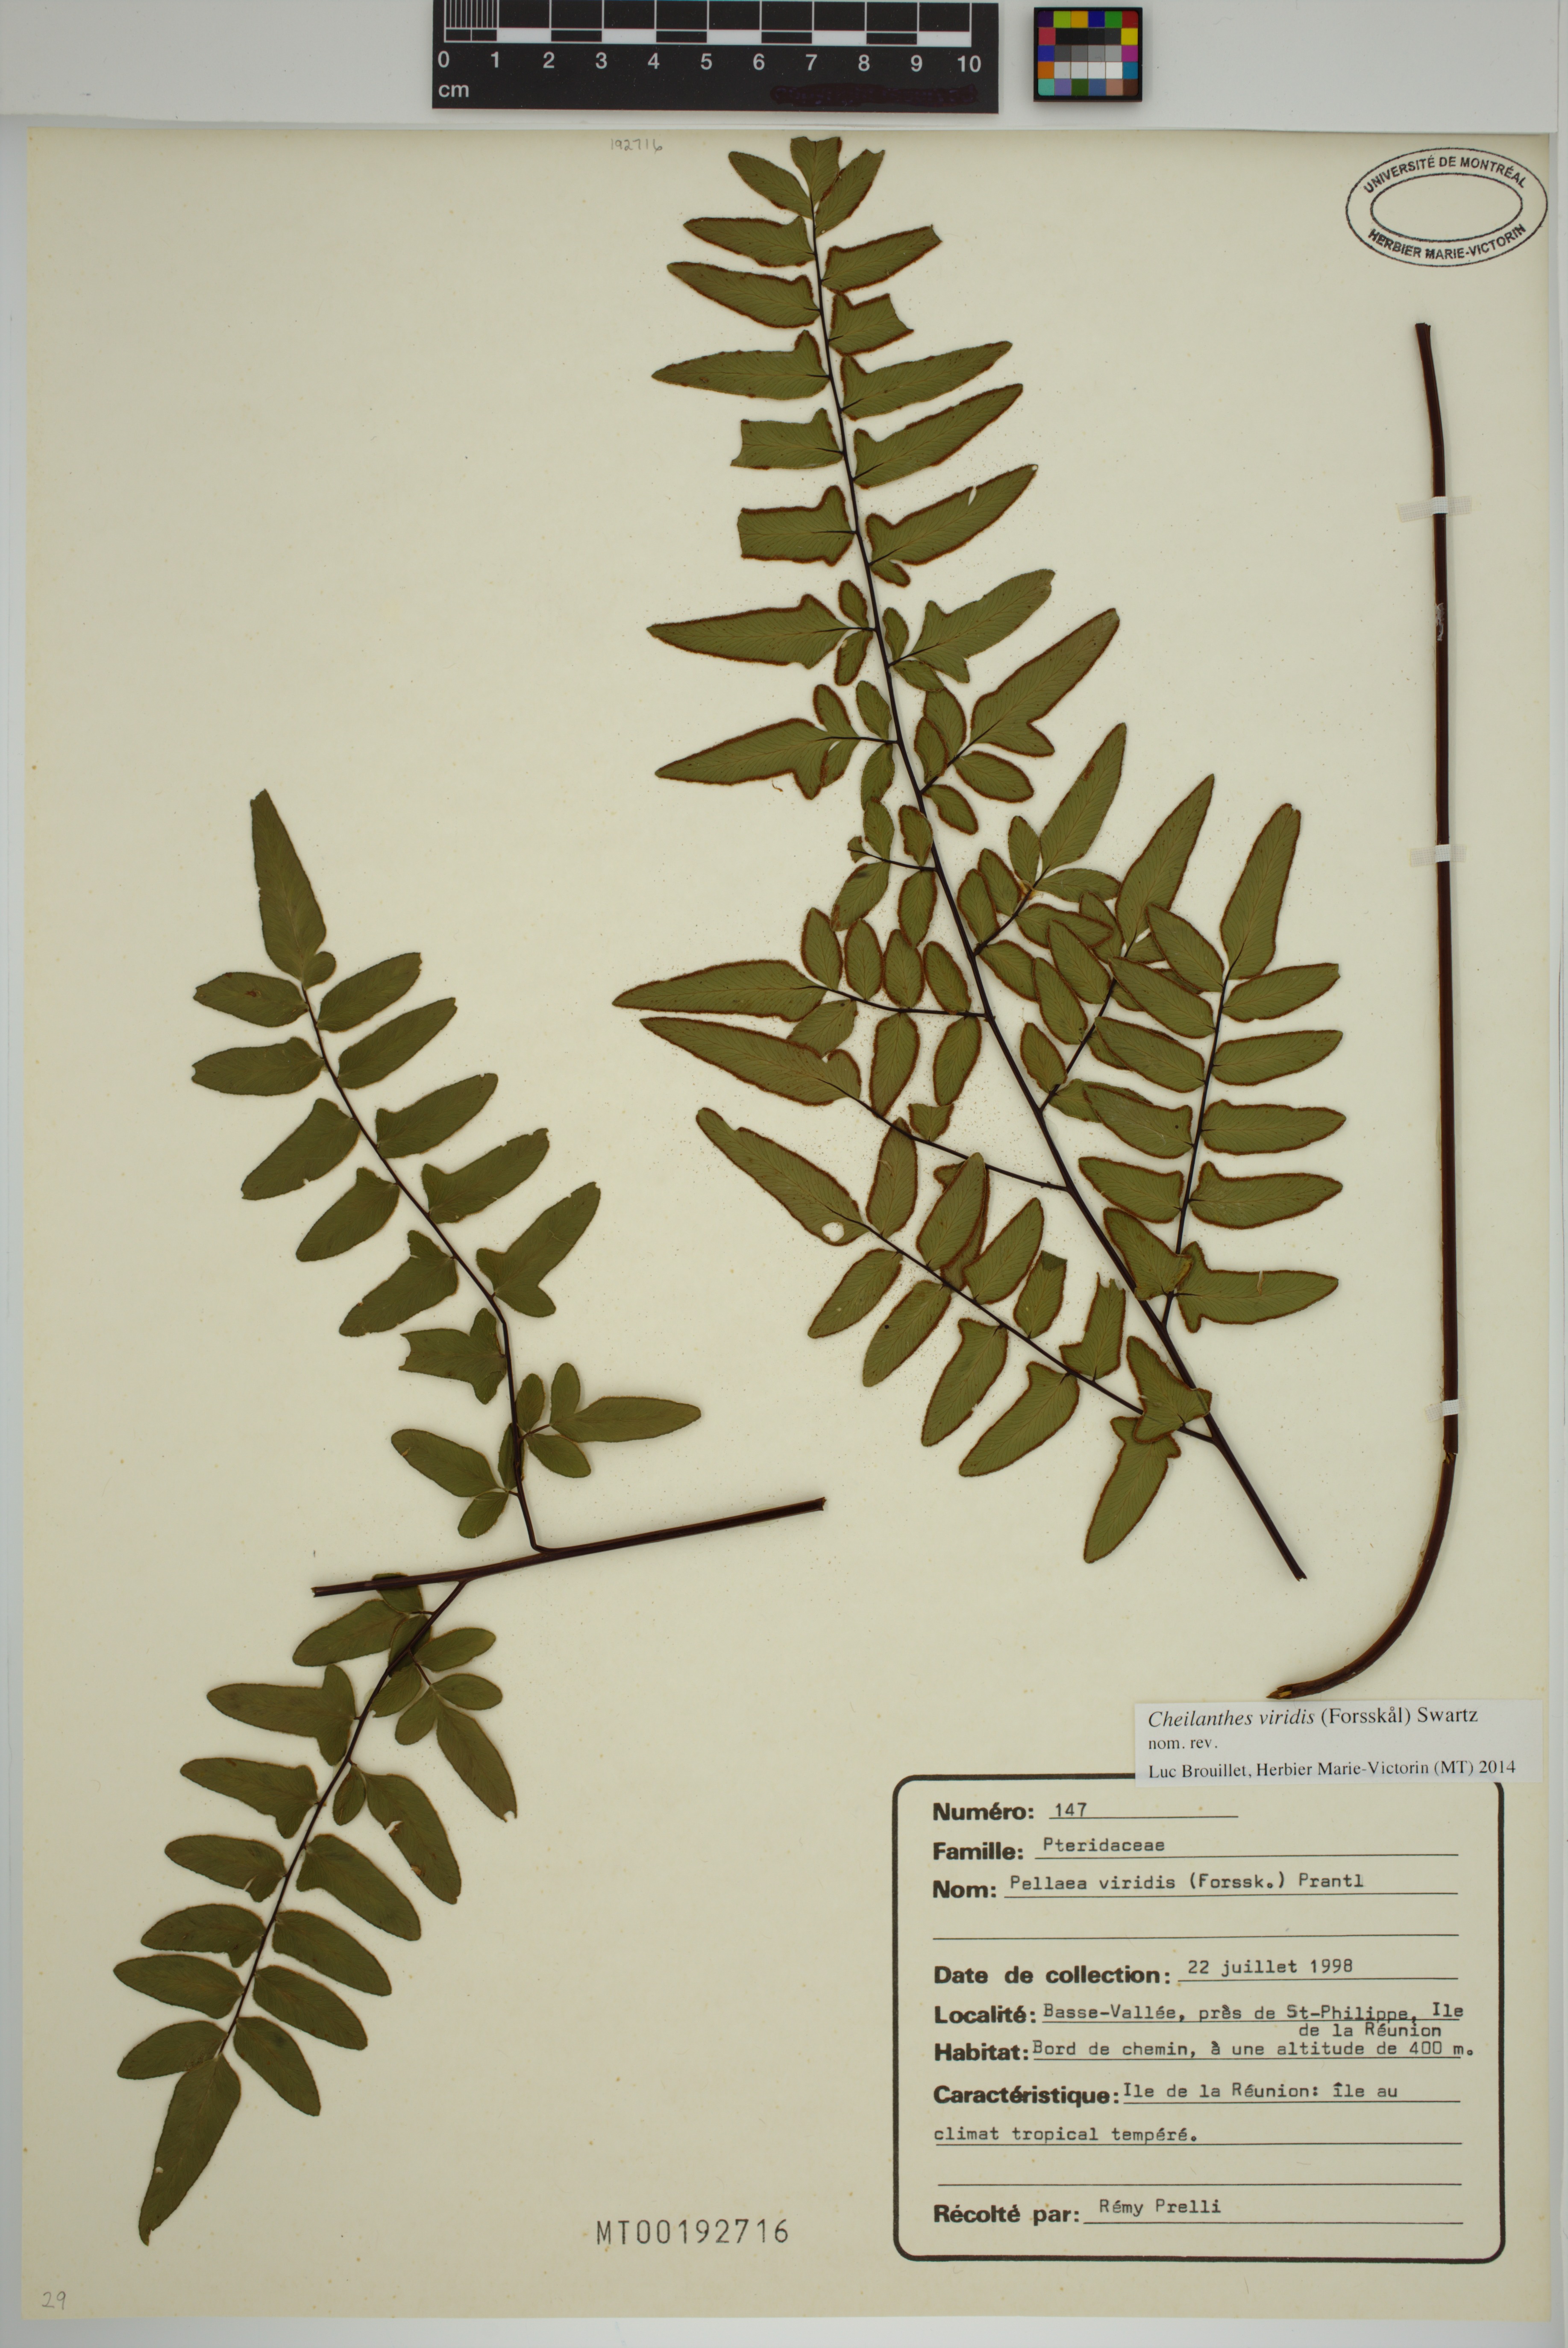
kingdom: Plantae
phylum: Tracheophyta
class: Polypodiopsida
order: Polypodiales
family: Pteridaceae
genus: Cheilanthes
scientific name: Cheilanthes viridis
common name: Green cliffbrake
